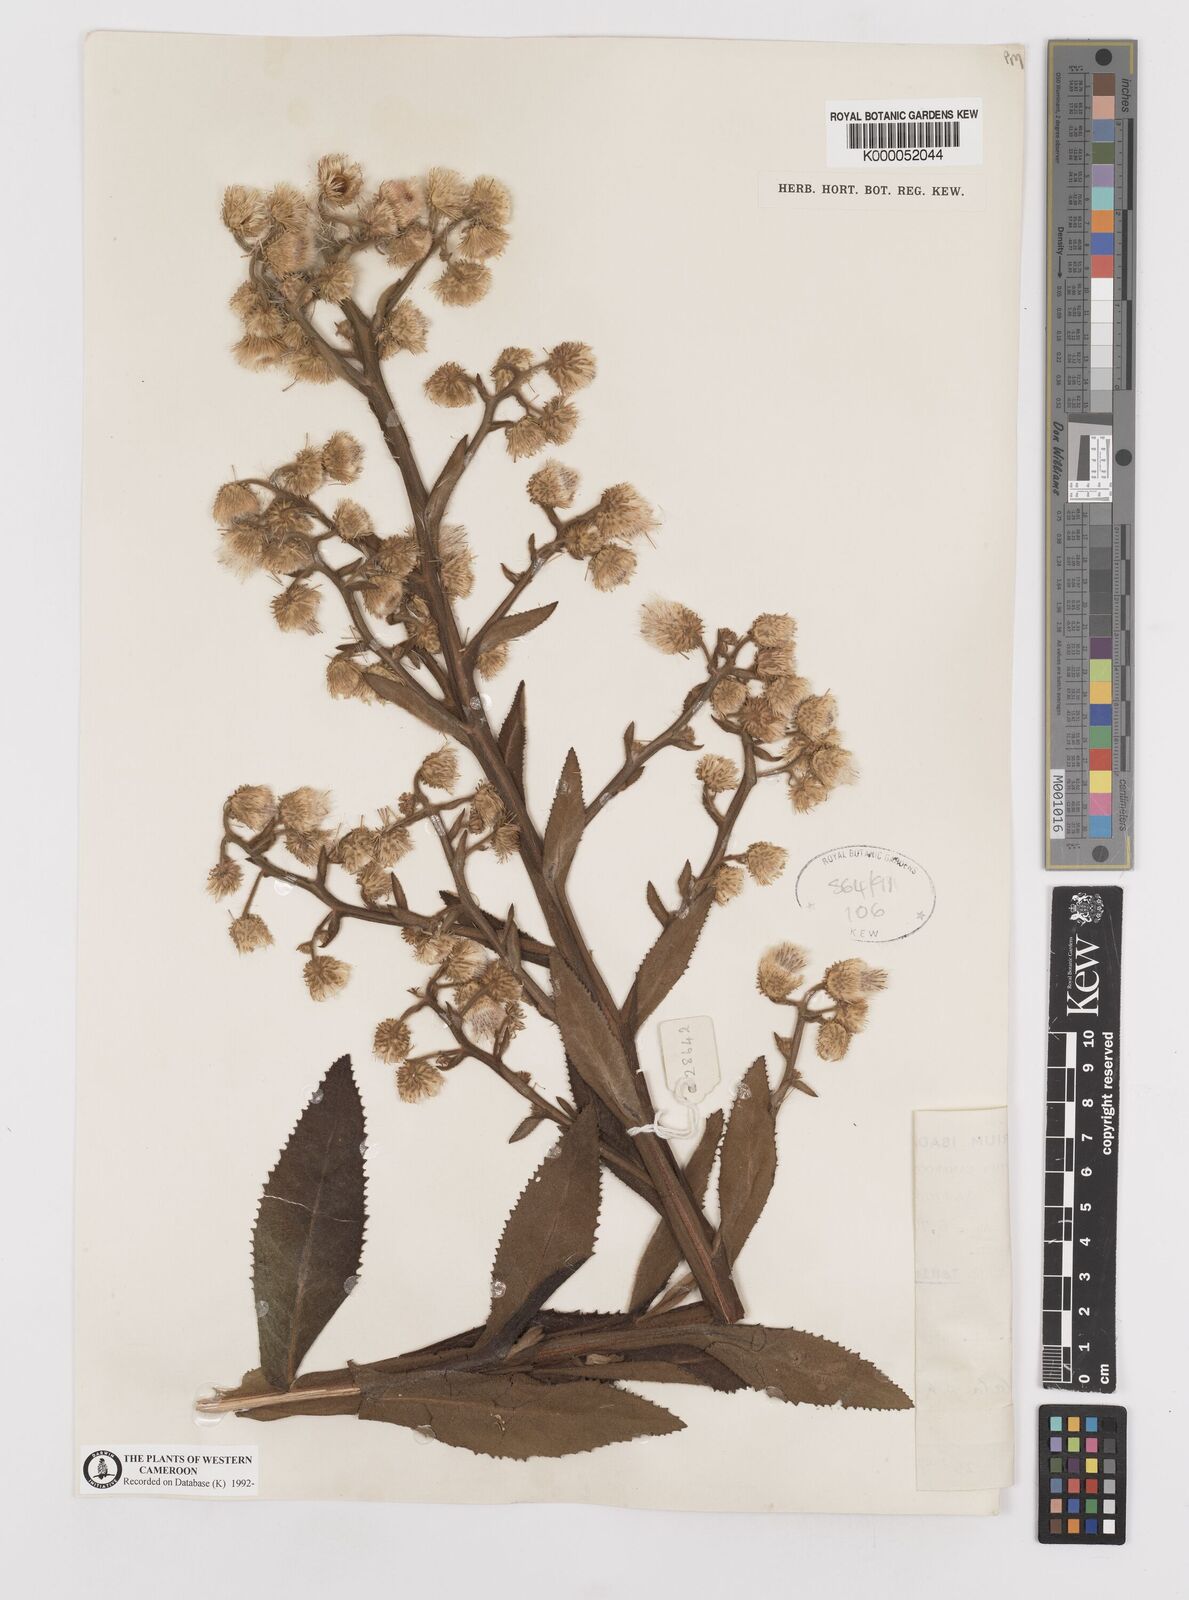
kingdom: Plantae
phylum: Tracheophyta
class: Magnoliopsida
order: Asterales
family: Asteraceae
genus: Laggera
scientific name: Laggera crispata
